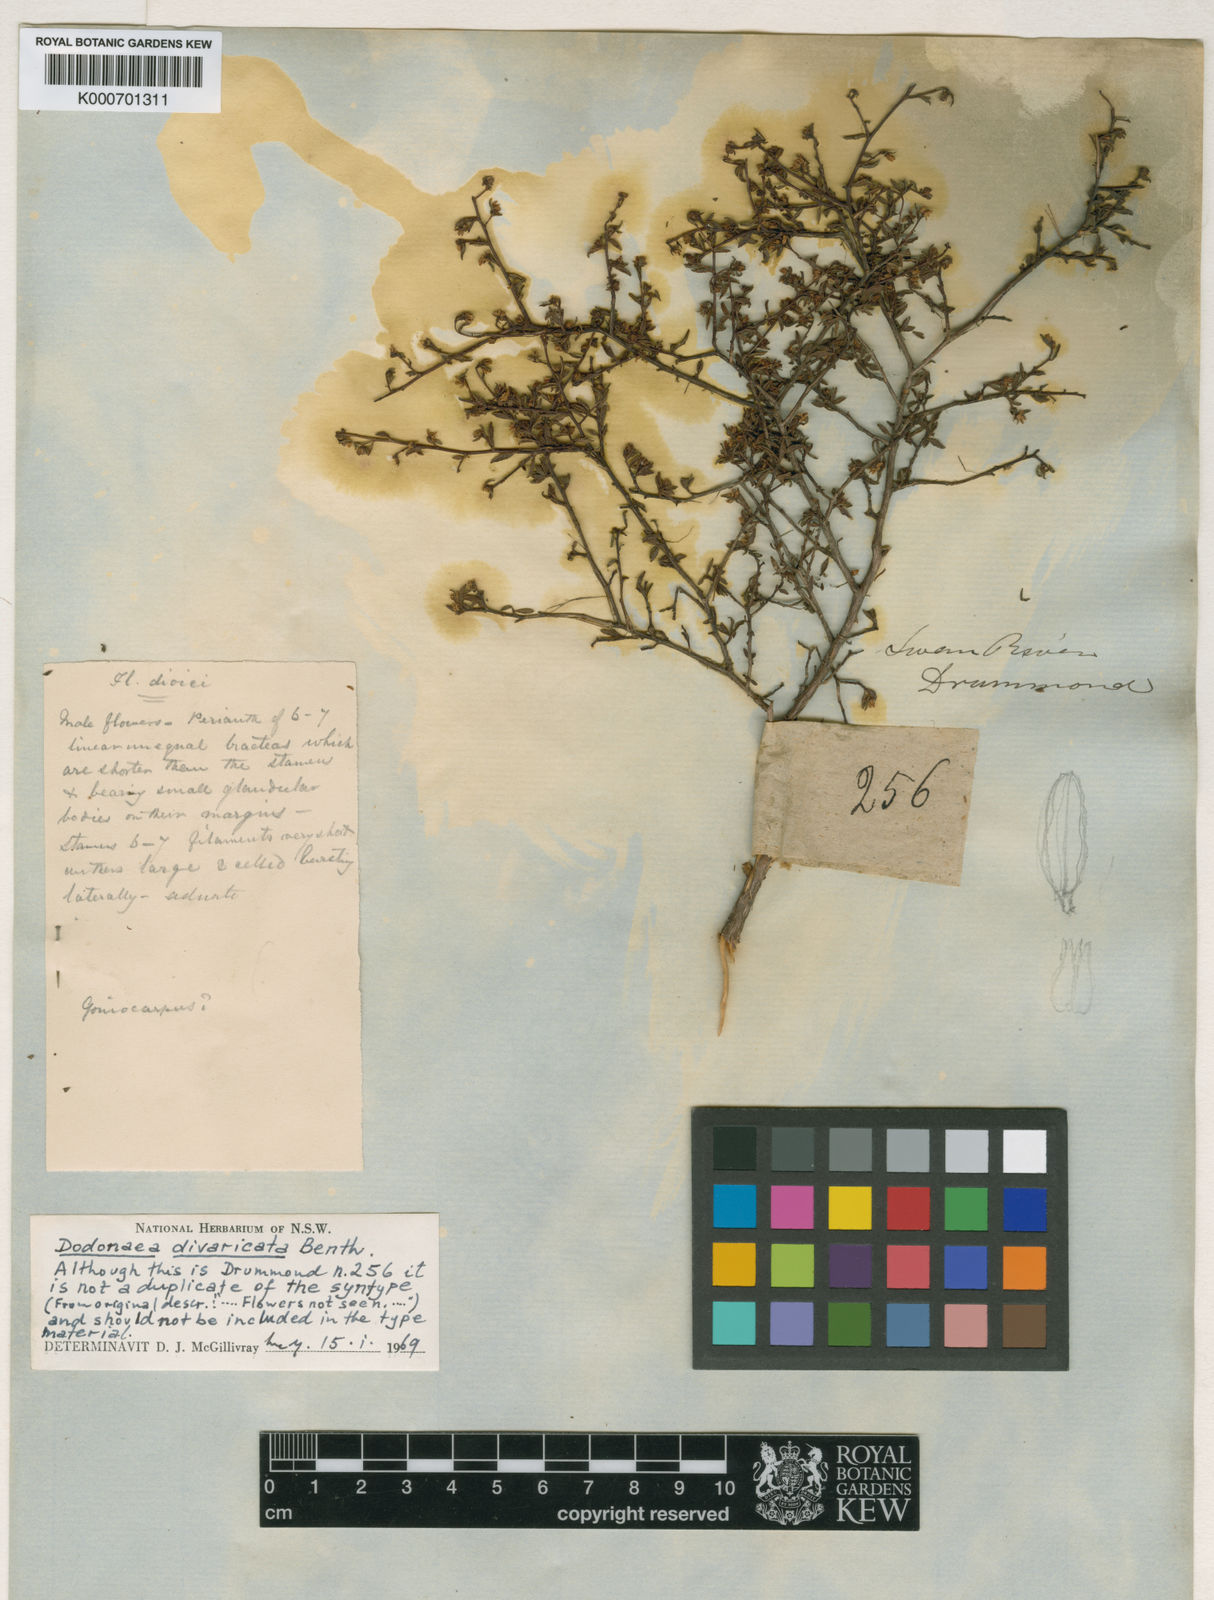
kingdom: Plantae
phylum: Tracheophyta
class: Magnoliopsida
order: Sapindales
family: Sapindaceae
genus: Dodonaea
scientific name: Dodonaea divaricata
